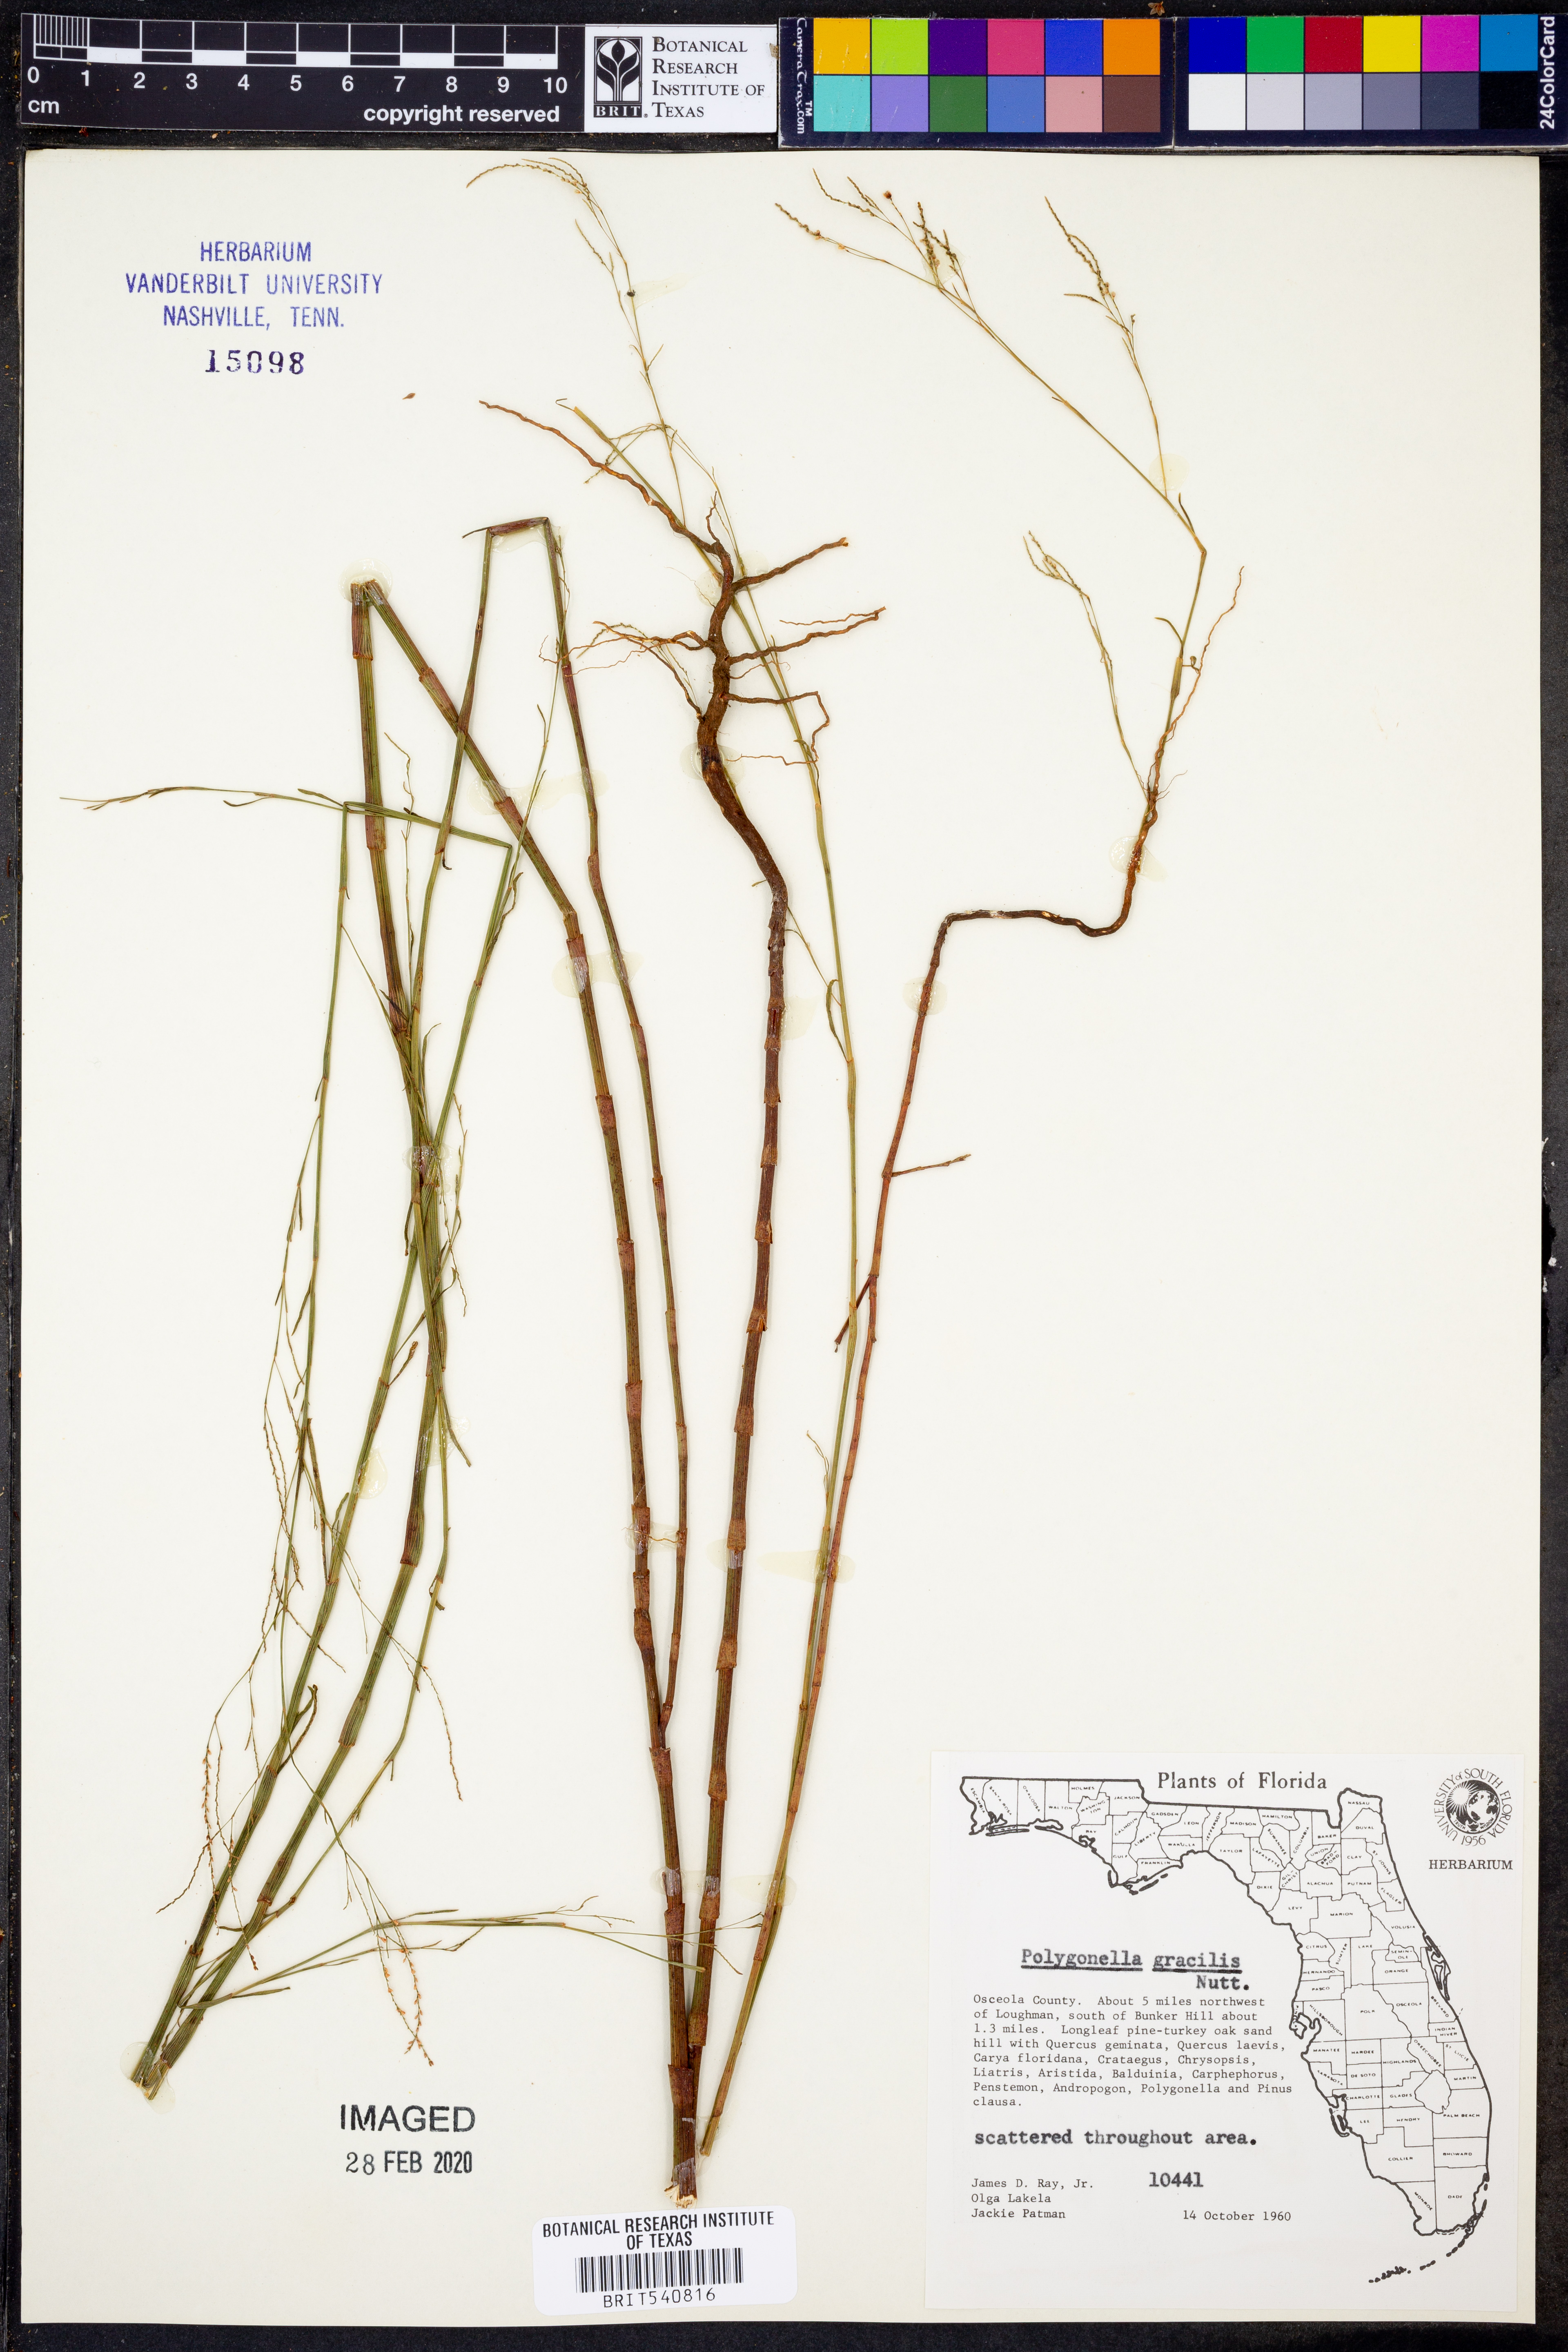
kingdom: Plantae
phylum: Tracheophyta
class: Magnoliopsida
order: Caryophyllales
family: Polygonaceae
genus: Polygonella
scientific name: Polygonella gracilis
